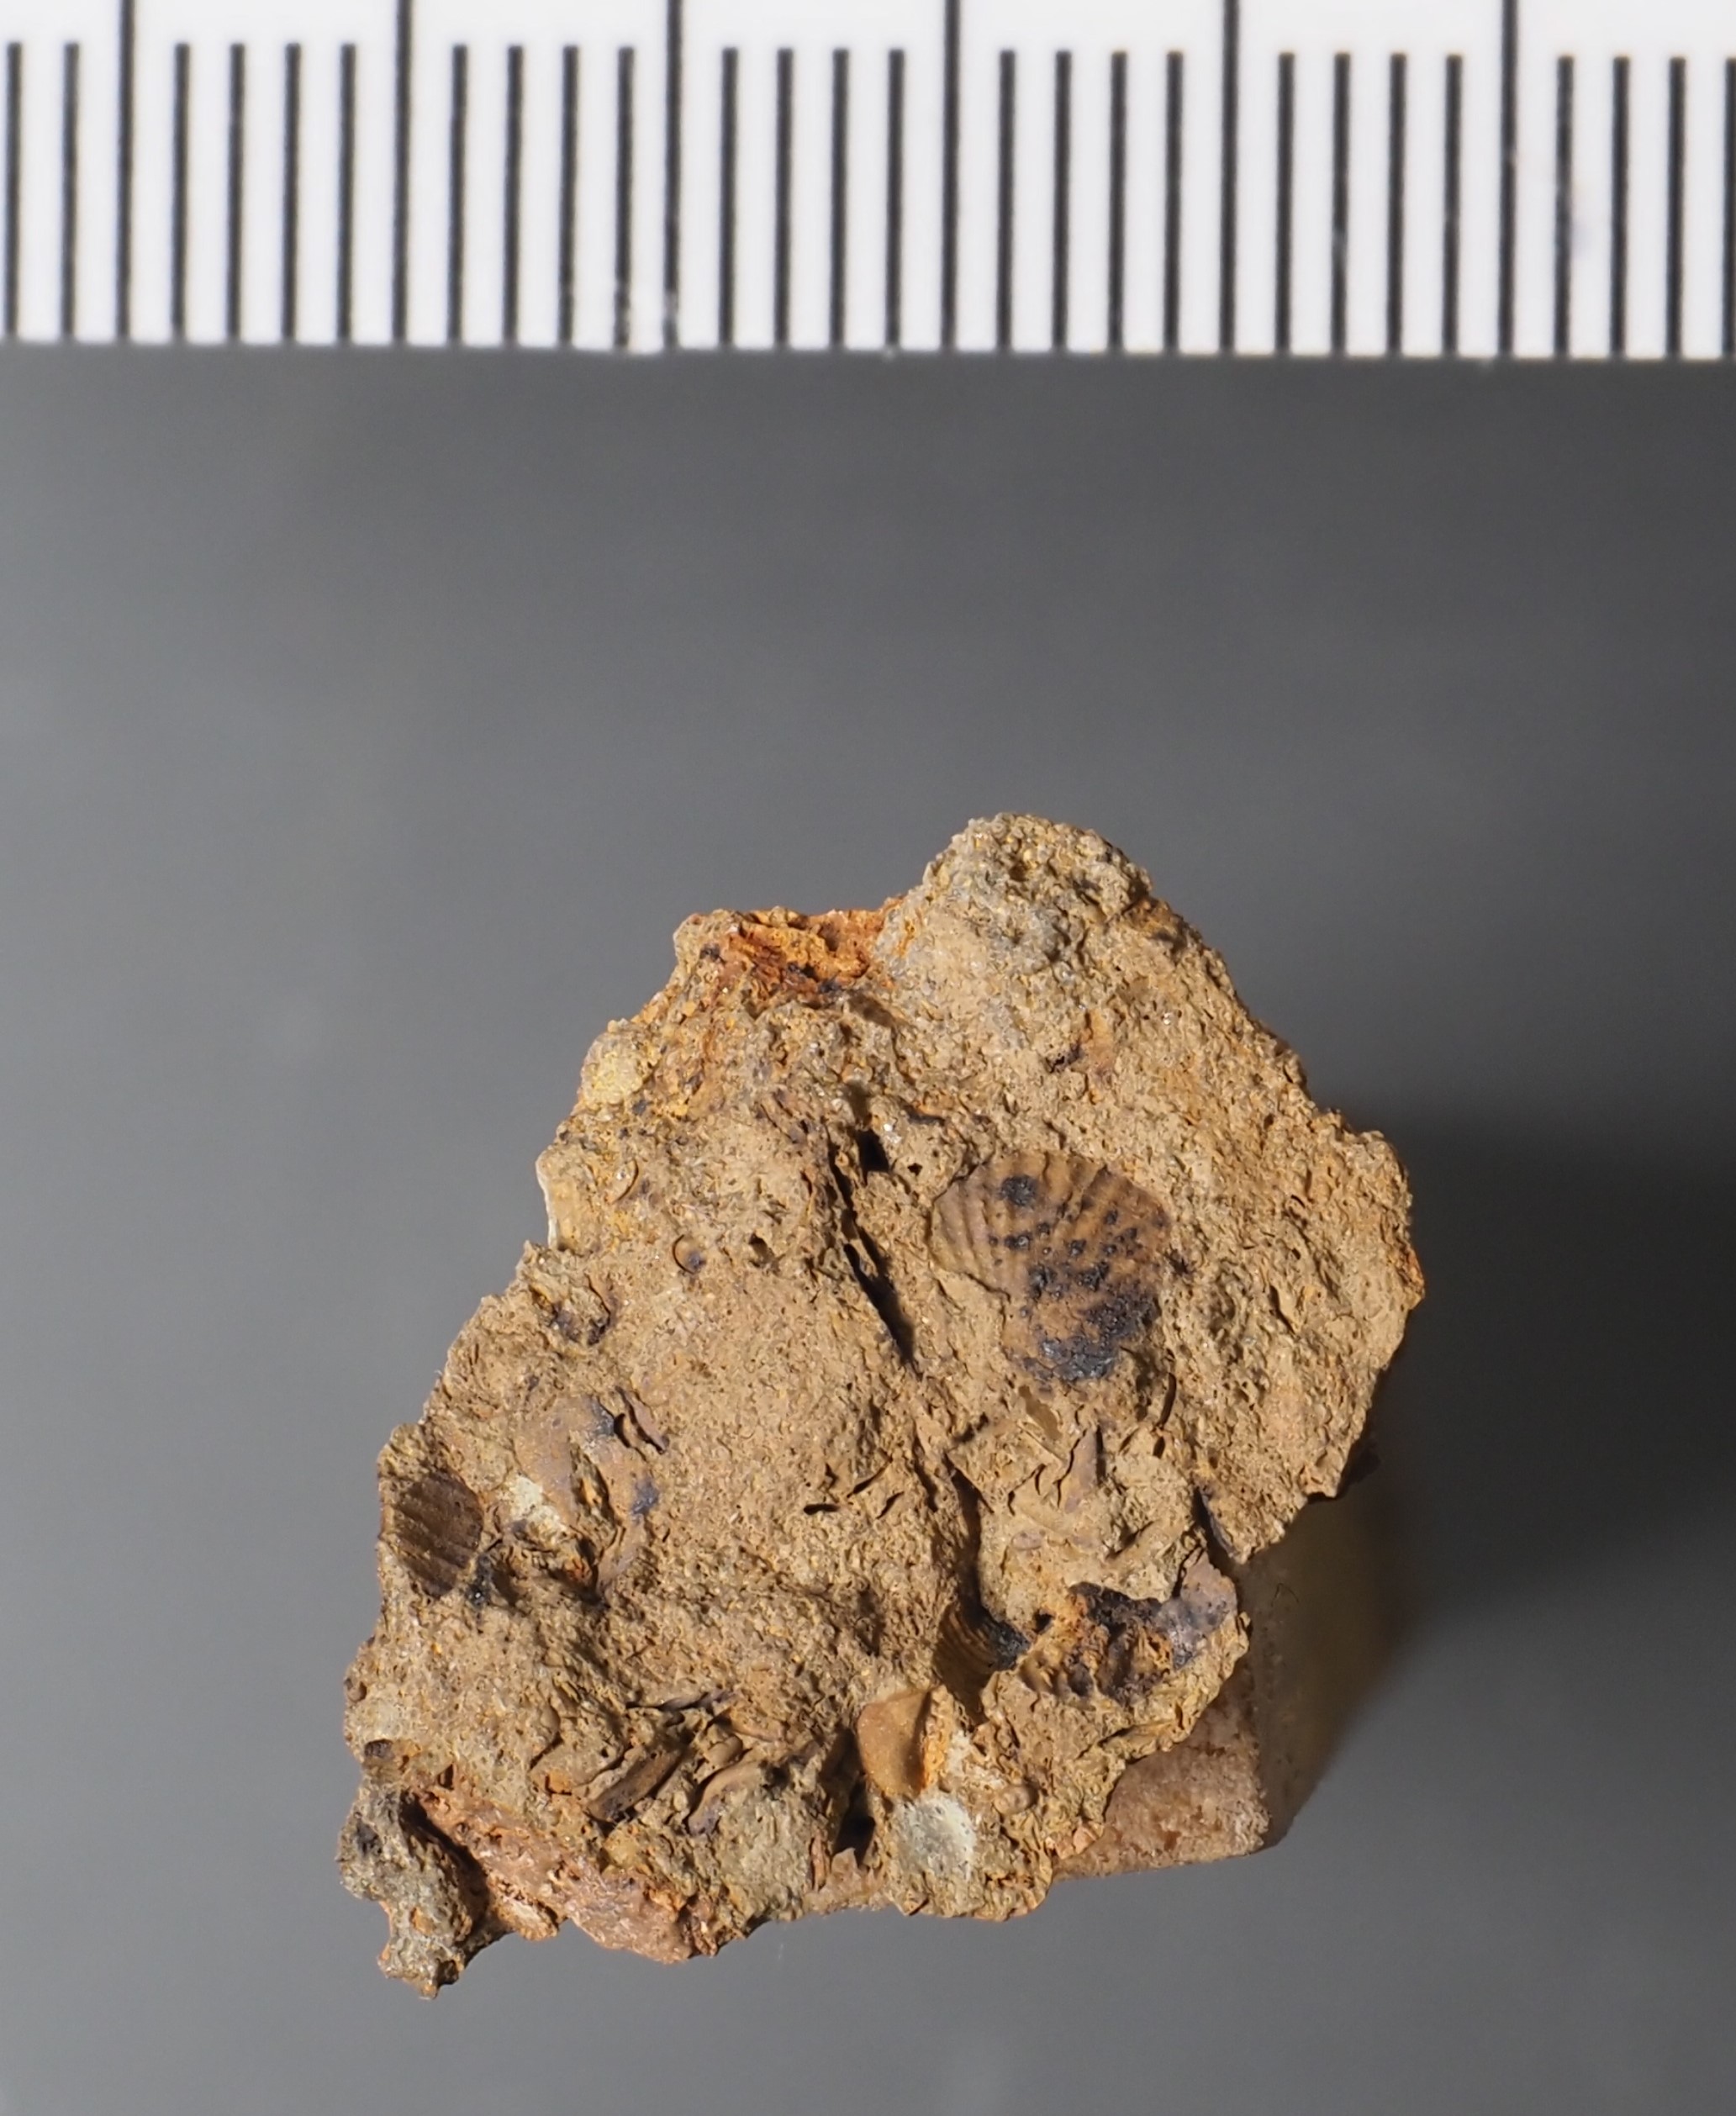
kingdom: Animalia
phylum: Arthropoda
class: Ostracoda
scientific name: Ostracoda
